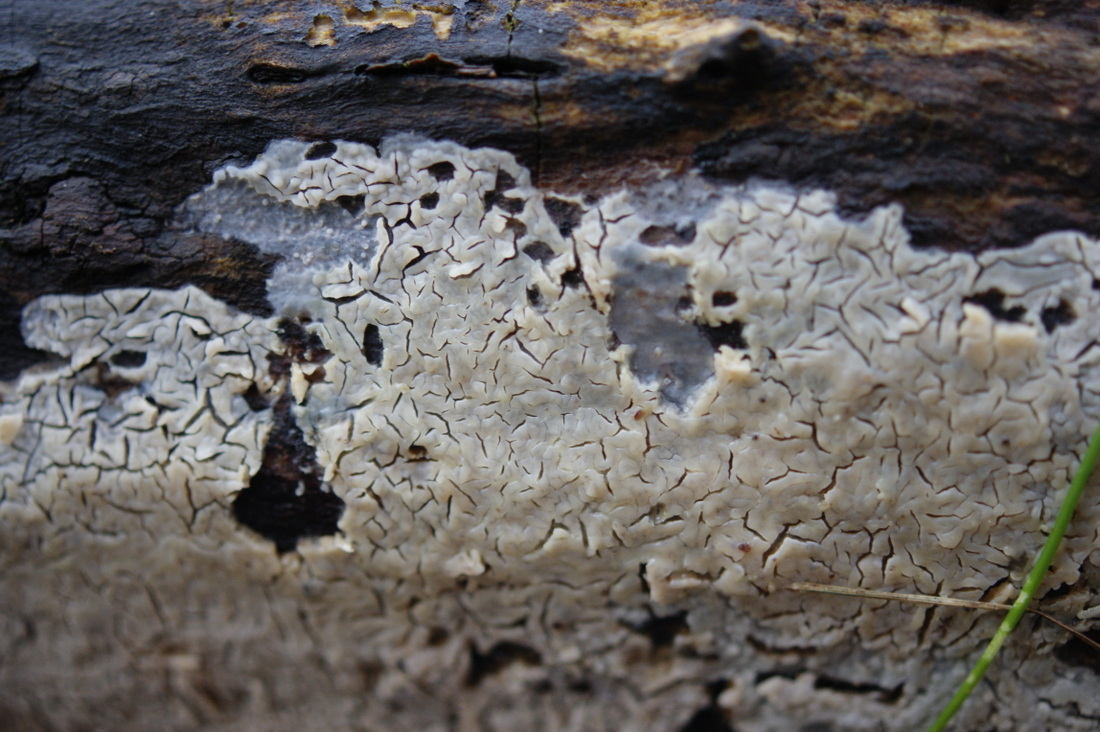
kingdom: Fungi
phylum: Basidiomycota
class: Agaricomycetes
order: Agaricales
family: Radulomycetaceae
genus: Radulomyces
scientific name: Radulomyces confluens
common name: glat naftalinskind
